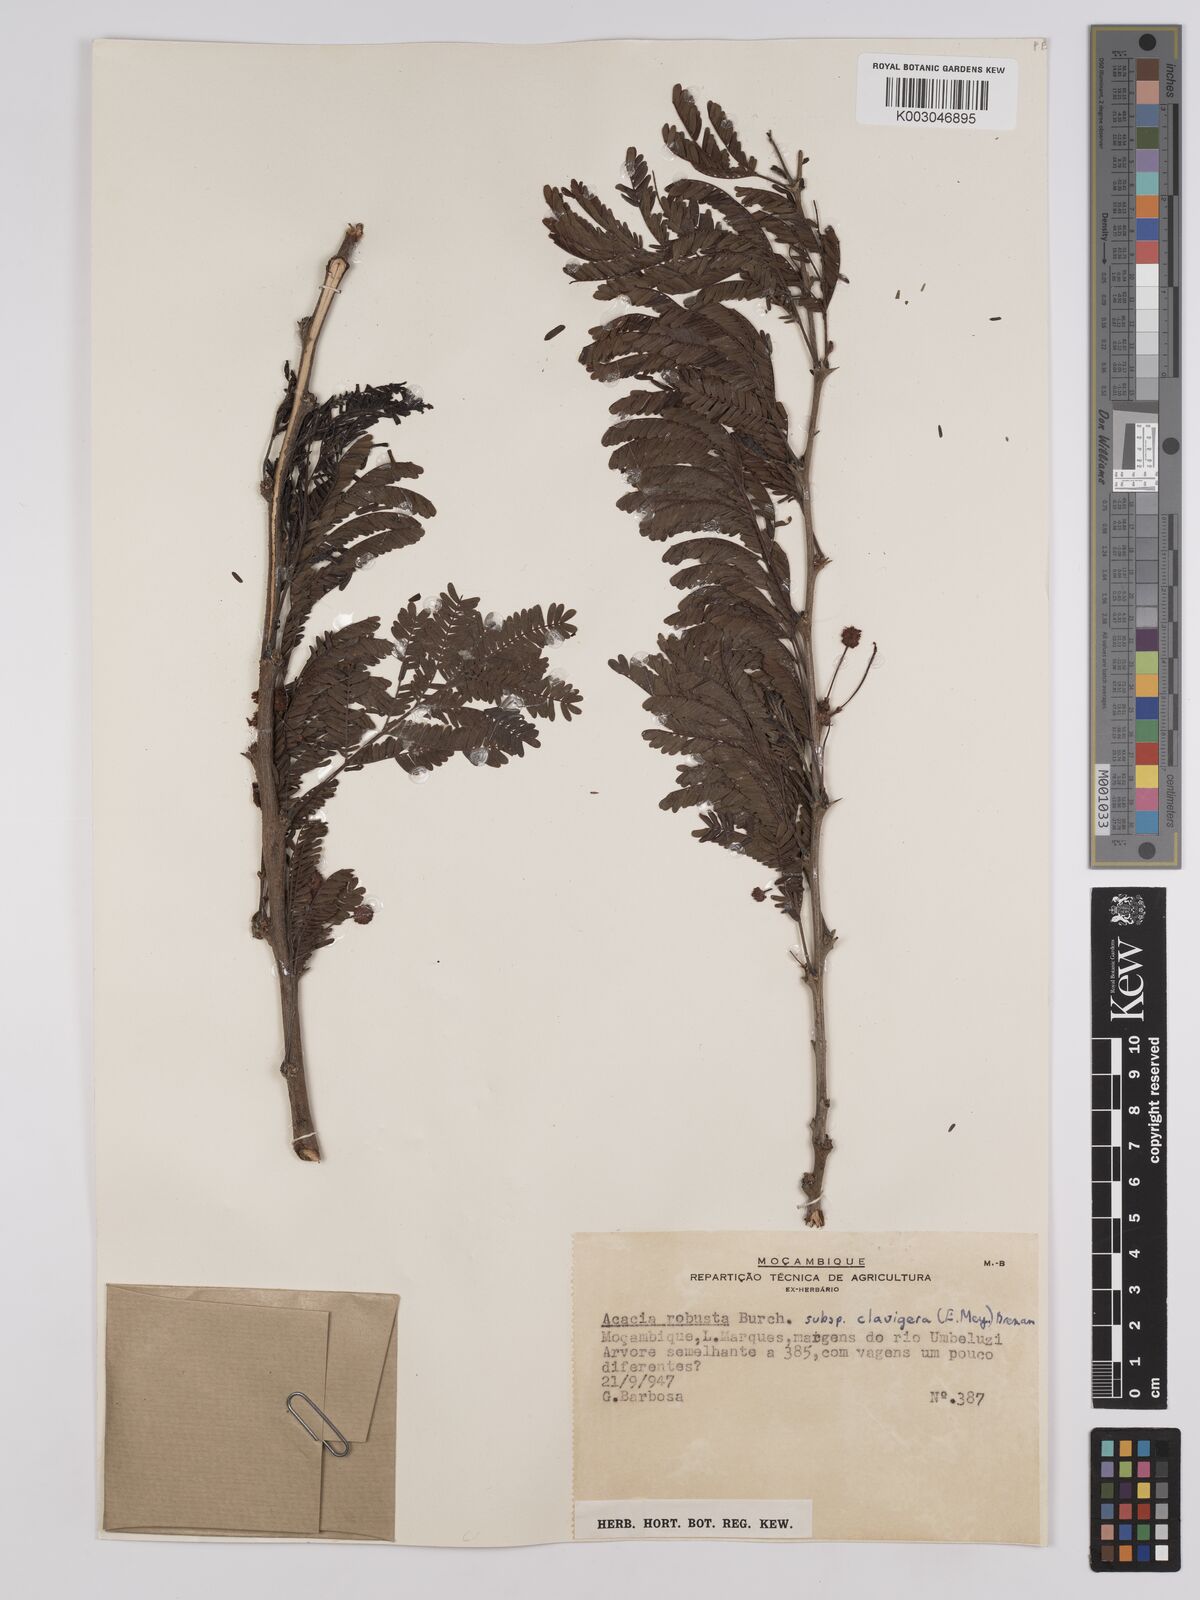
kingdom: Plantae
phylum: Tracheophyta
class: Magnoliopsida
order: Fabales
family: Fabaceae
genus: Vachellia
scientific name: Vachellia robusta
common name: Ankle thorn
